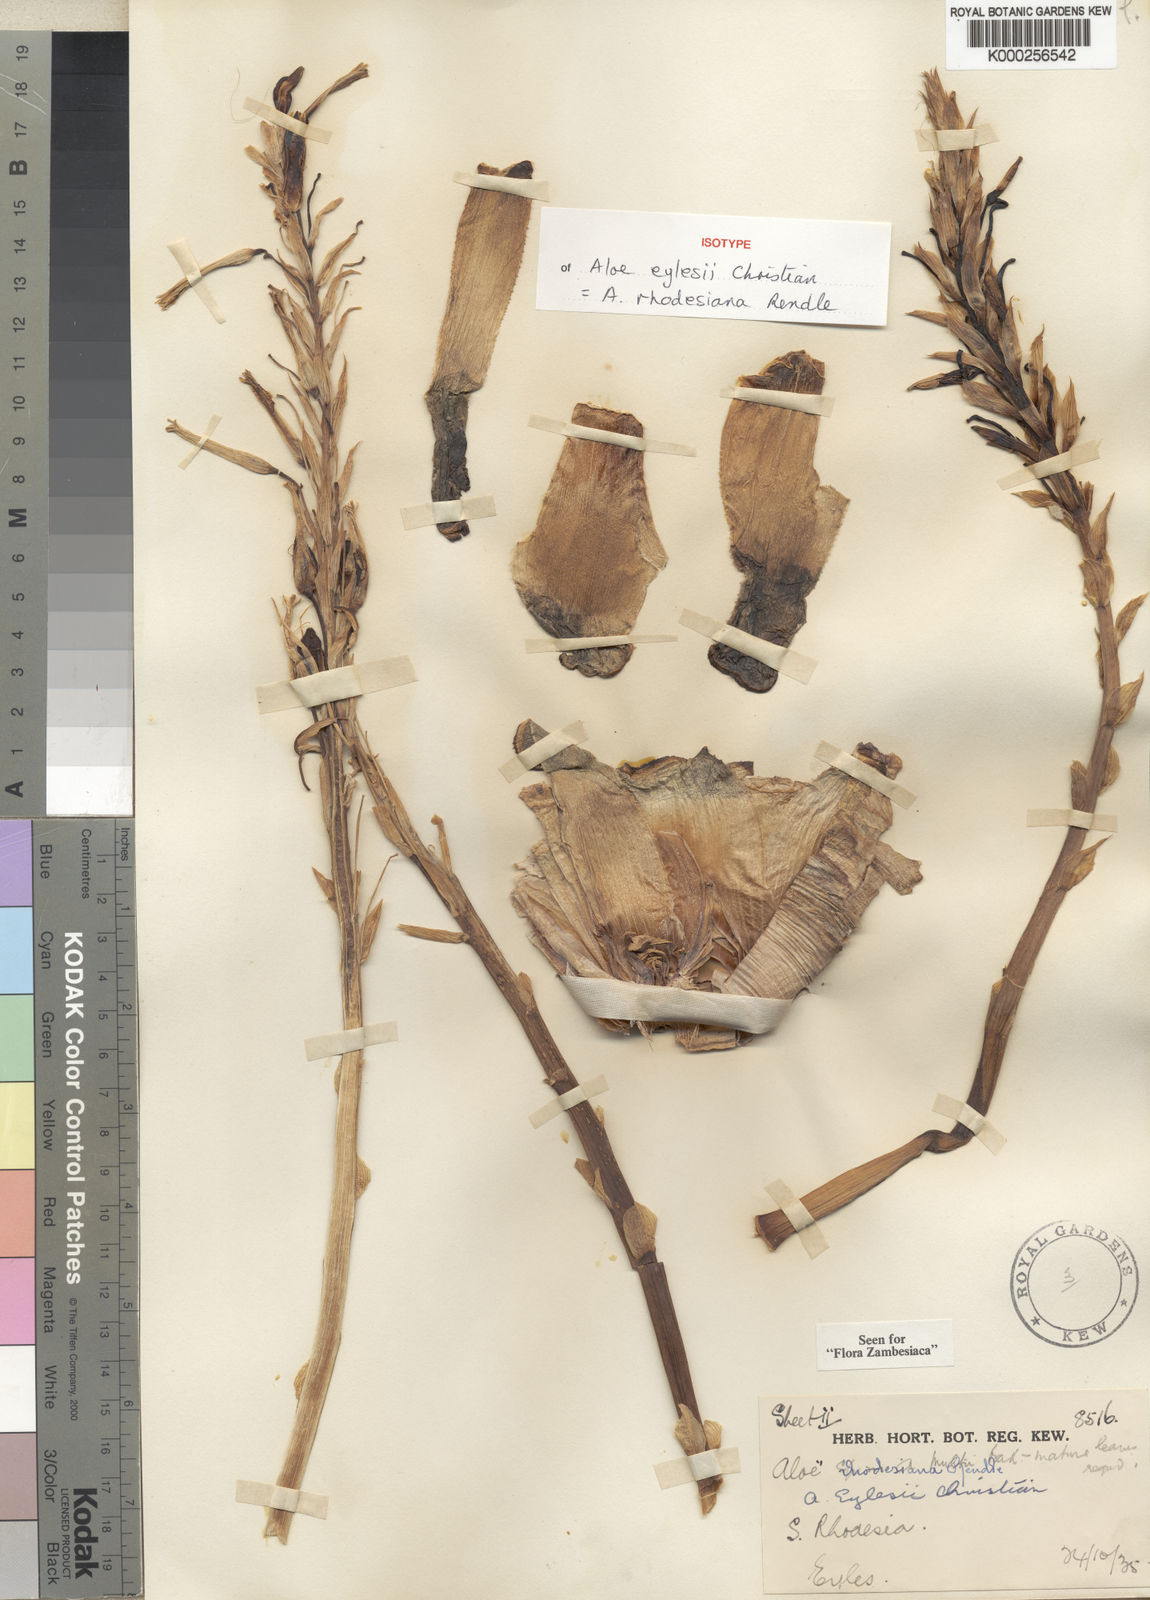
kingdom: Plantae
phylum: Tracheophyta
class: Liliopsida
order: Asparagales
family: Asphodelaceae
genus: Aloe
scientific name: Aloe rhodesiana
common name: Rhodesian aloe
